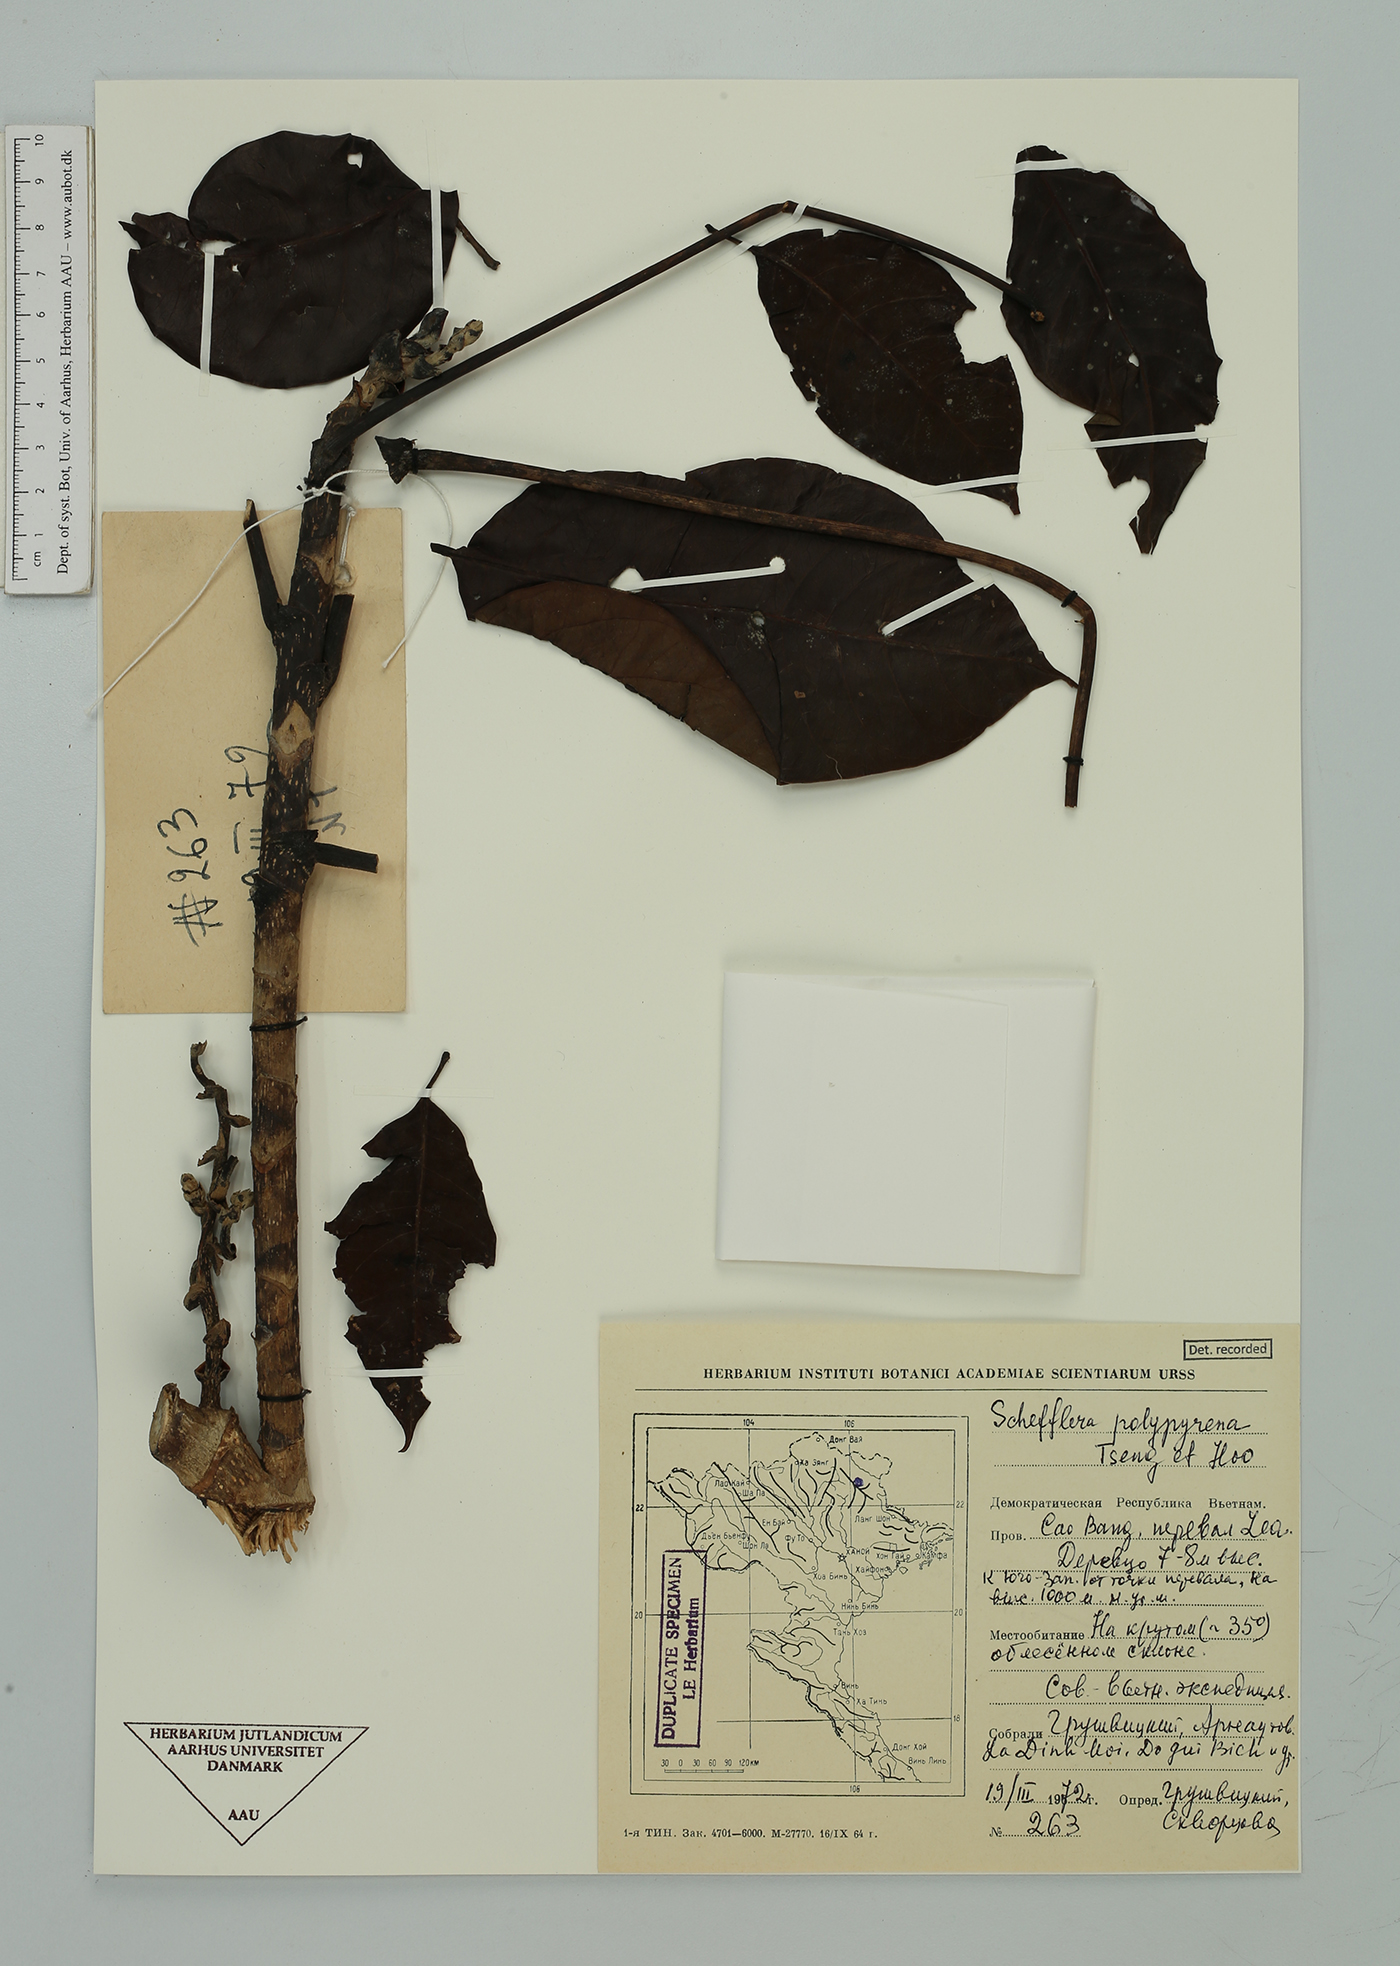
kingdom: Plantae
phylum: Tracheophyta
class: Magnoliopsida
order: Apiales
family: Araliaceae
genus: Heptapleurum
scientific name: Heptapleurum pes-avis
